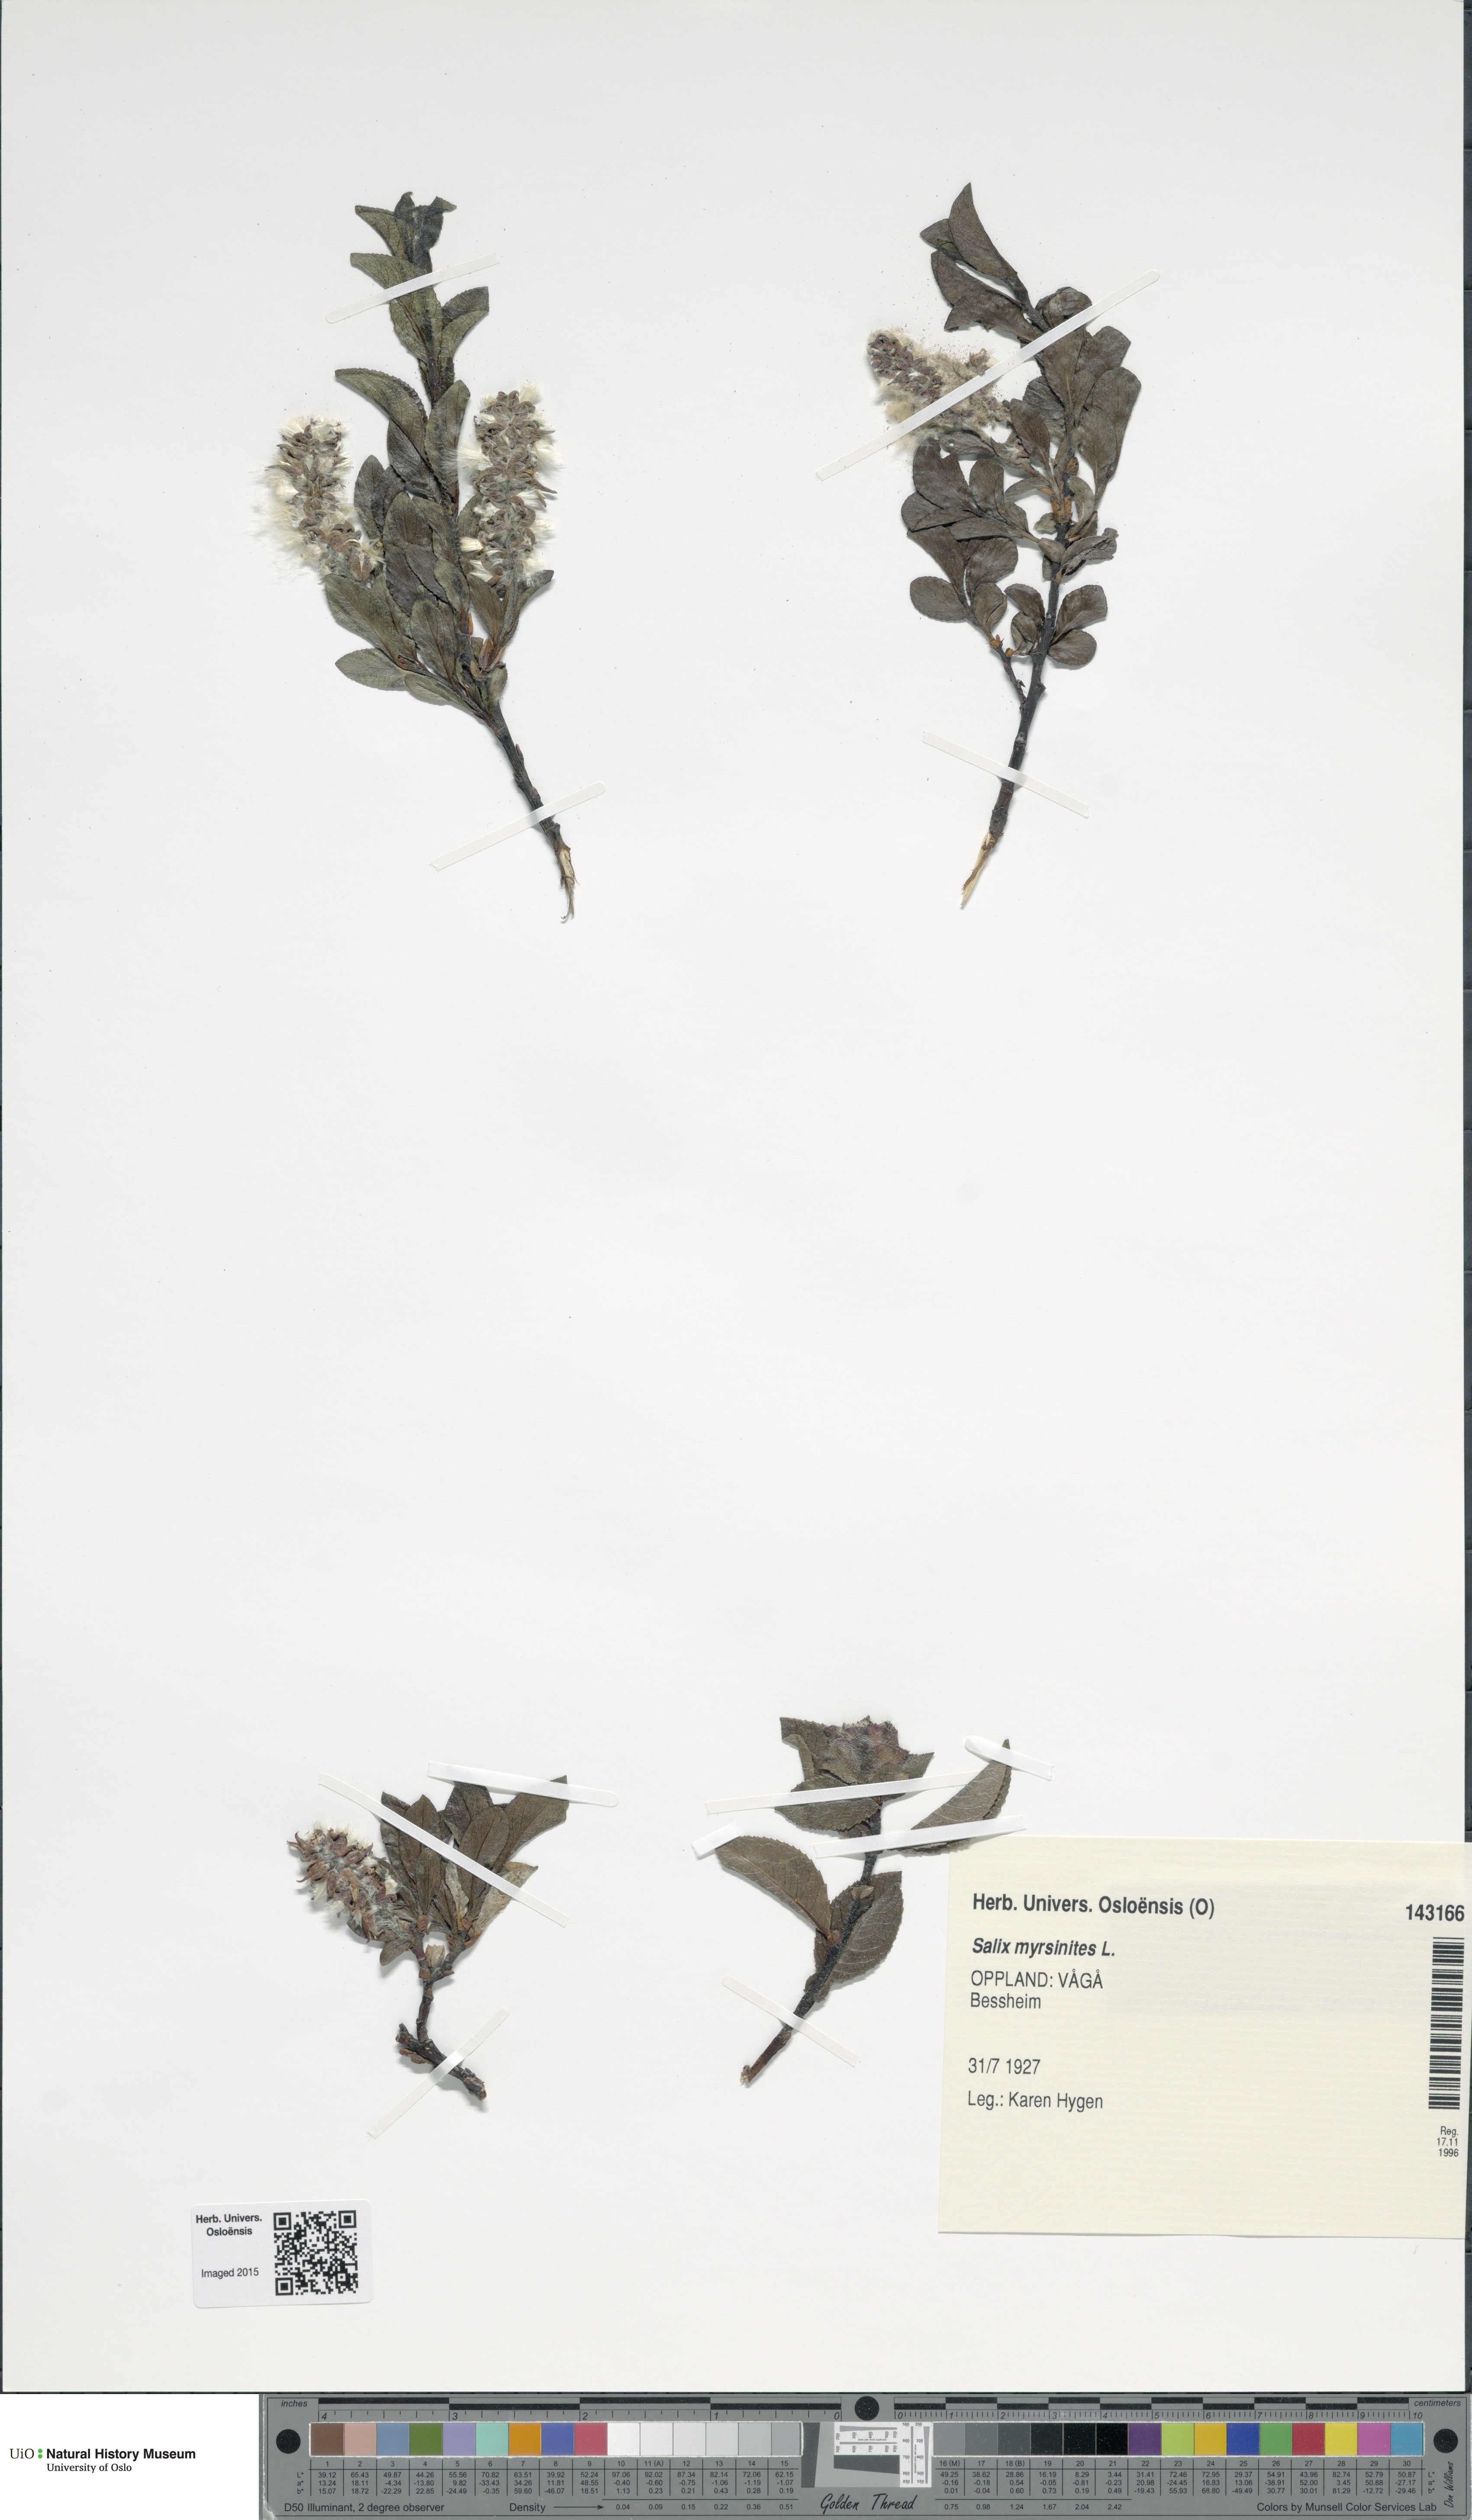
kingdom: Plantae
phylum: Tracheophyta
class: Magnoliopsida
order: Malpighiales
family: Salicaceae
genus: Salix
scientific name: Salix myrsinites
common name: Myrtle willow
